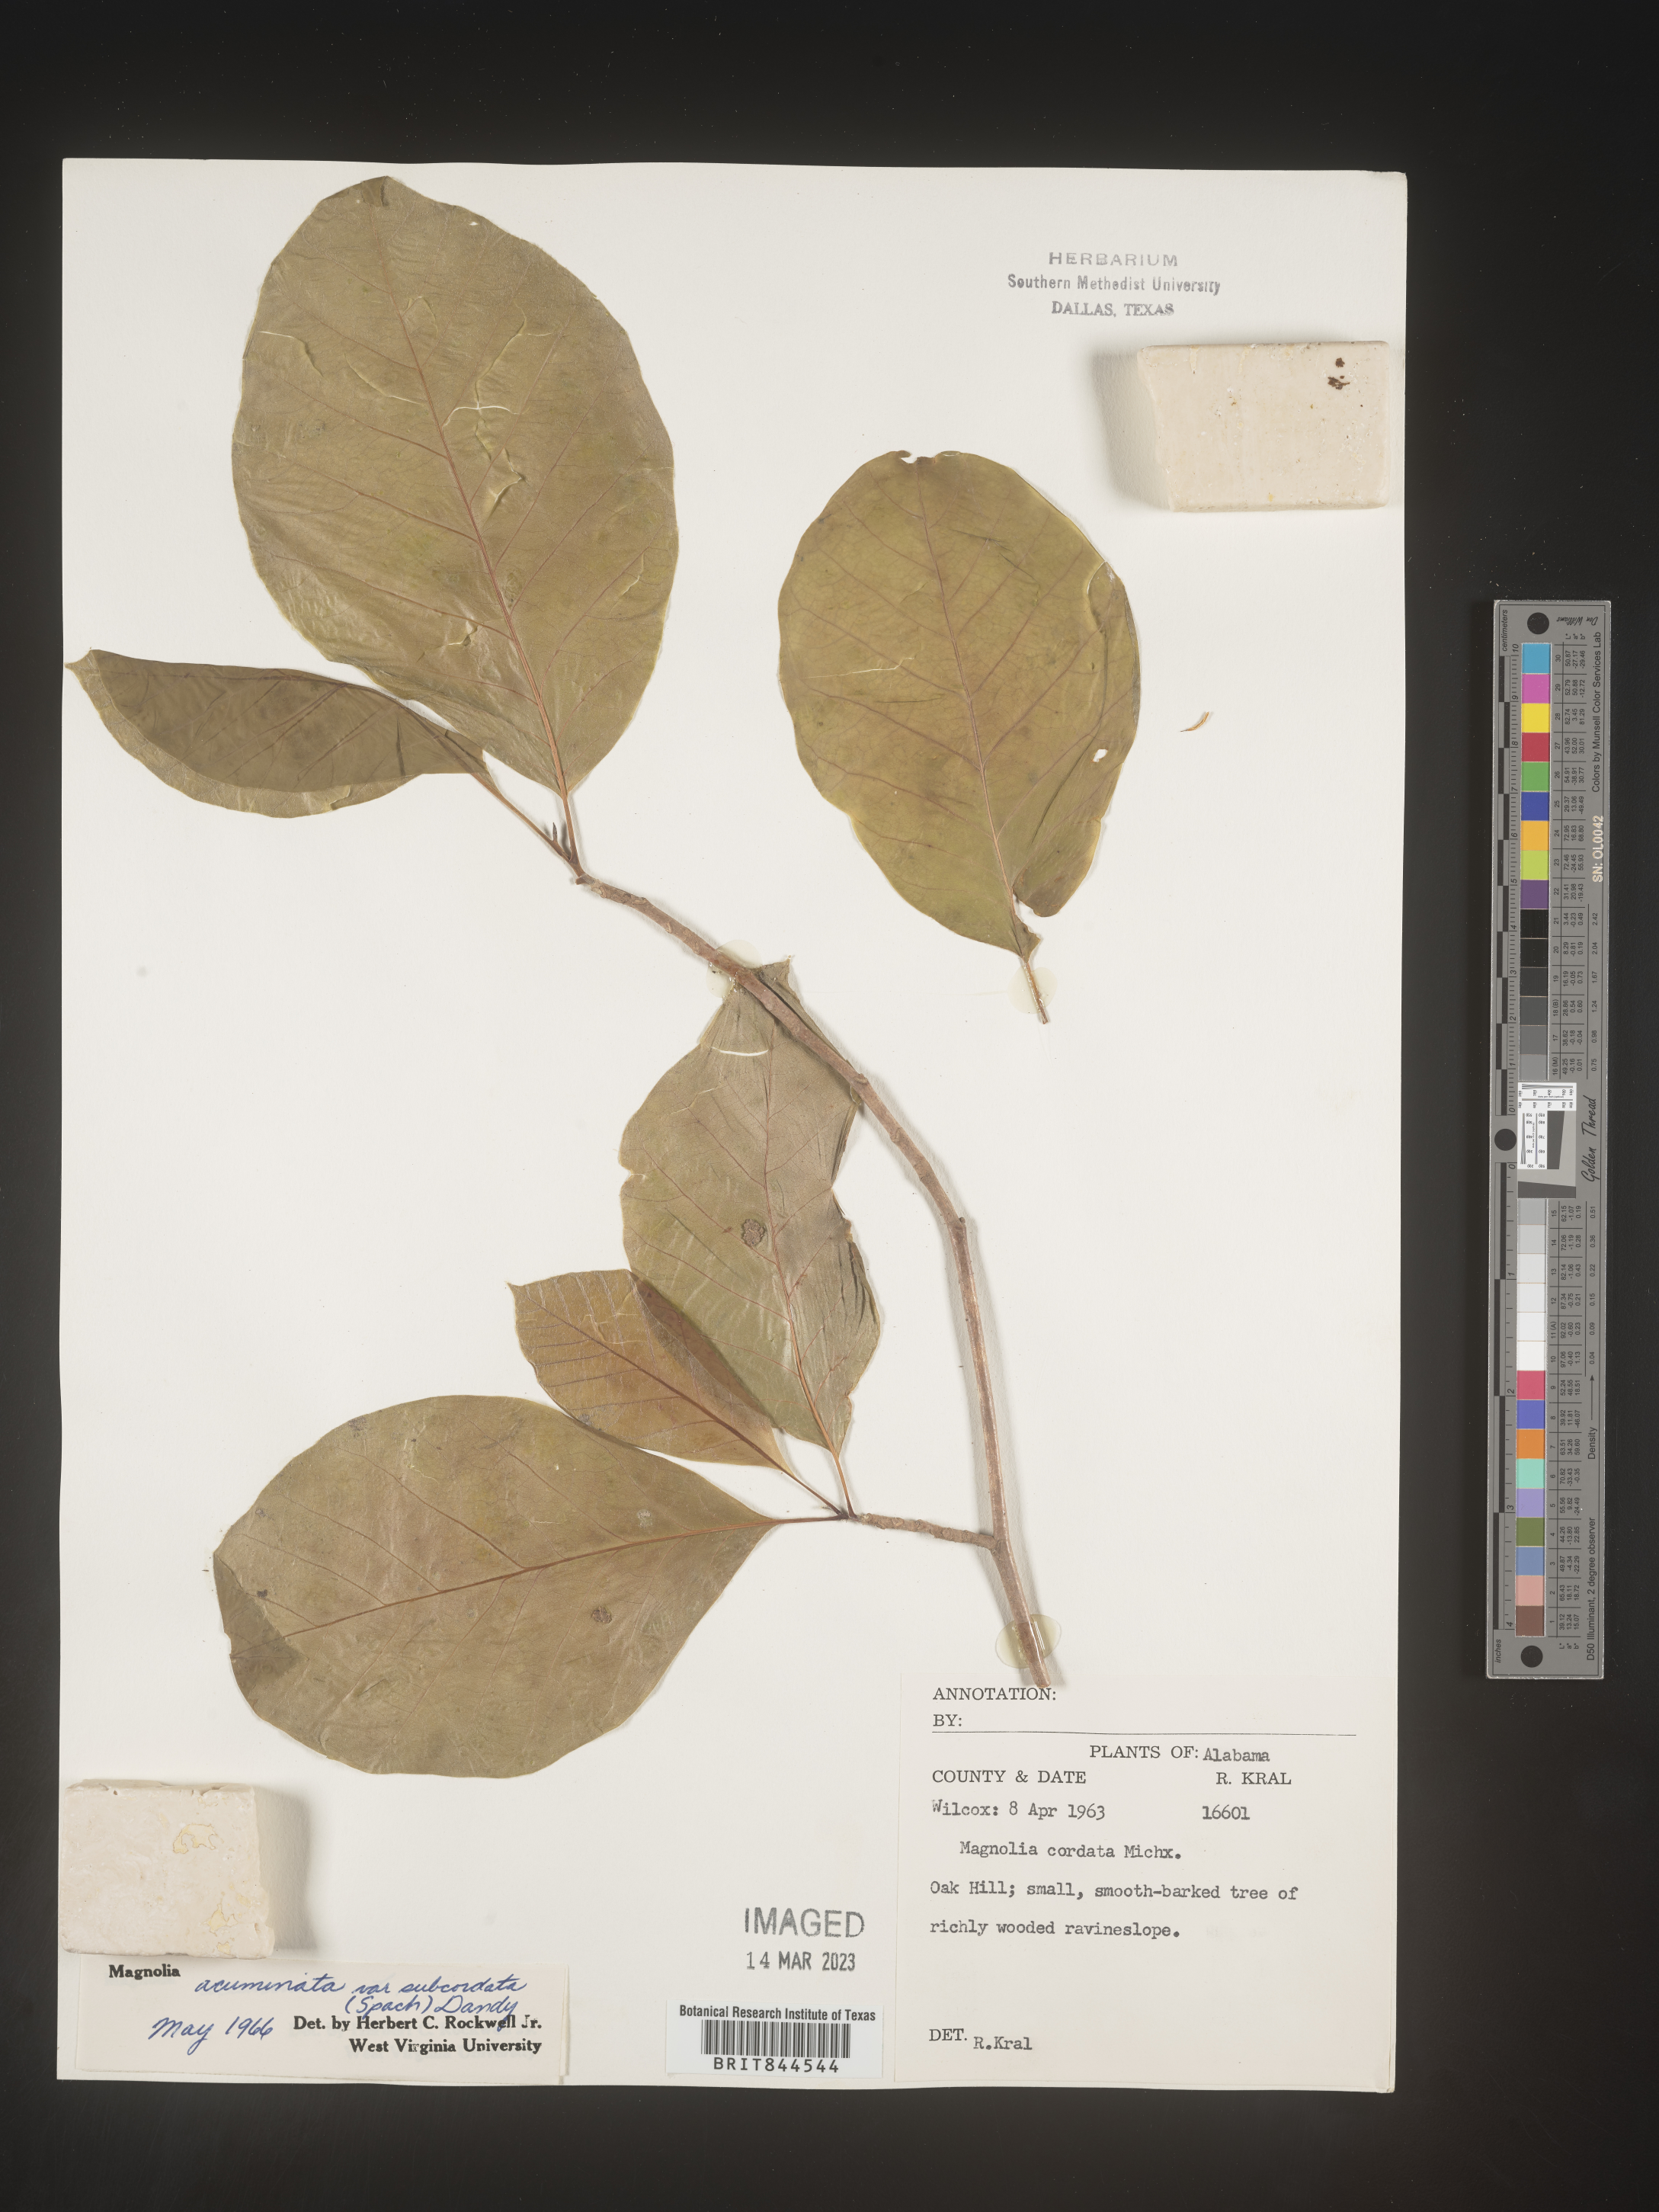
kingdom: Plantae
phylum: Tracheophyta
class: Magnoliopsida
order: Magnoliales
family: Magnoliaceae
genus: Magnolia
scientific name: Magnolia acuminata
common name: Cucumber magnolia
